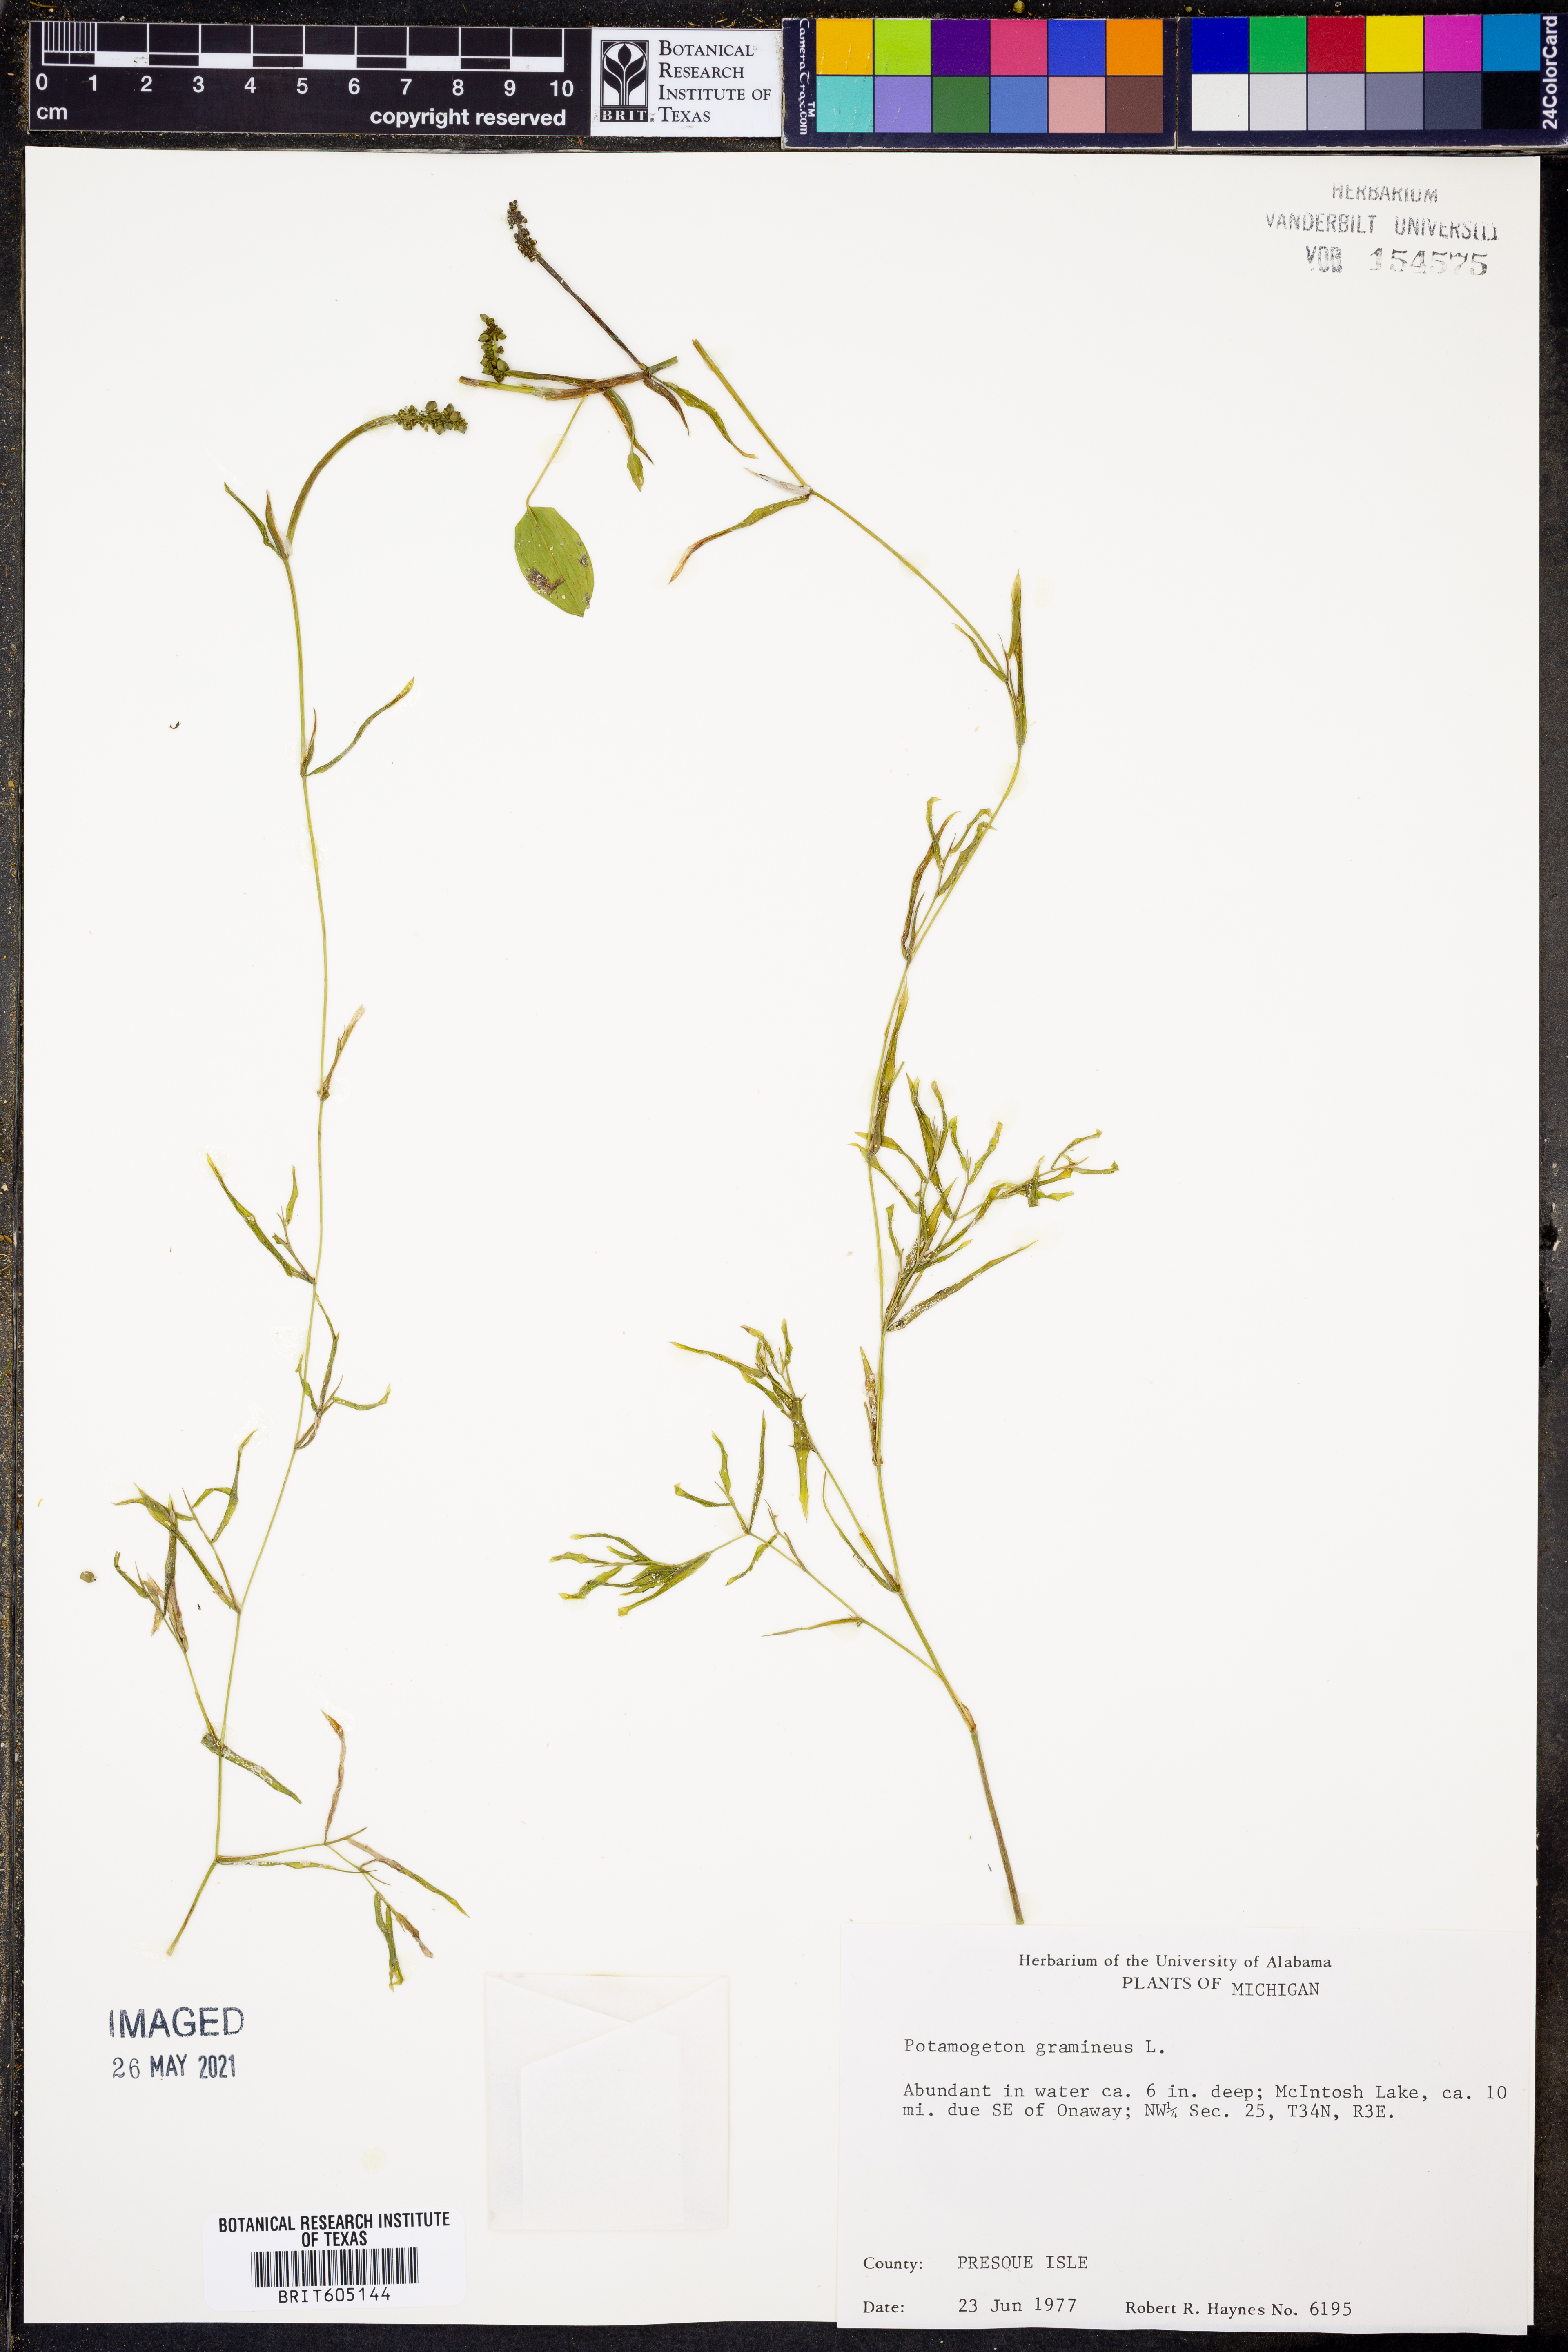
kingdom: Plantae
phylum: Tracheophyta
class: Liliopsida
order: Alismatales
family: Potamogetonaceae
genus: Potamogeton
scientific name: Potamogeton gramineus
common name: Various-leaved pondweed
